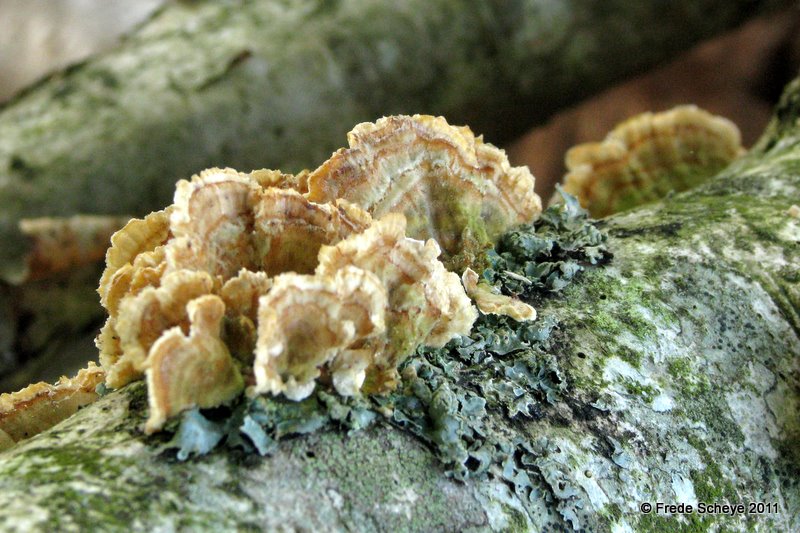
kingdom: Fungi
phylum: Basidiomycota
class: Agaricomycetes
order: Polyporales
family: Polyporaceae
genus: Trametes
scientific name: Trametes versicolor
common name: broget læderporesvamp
